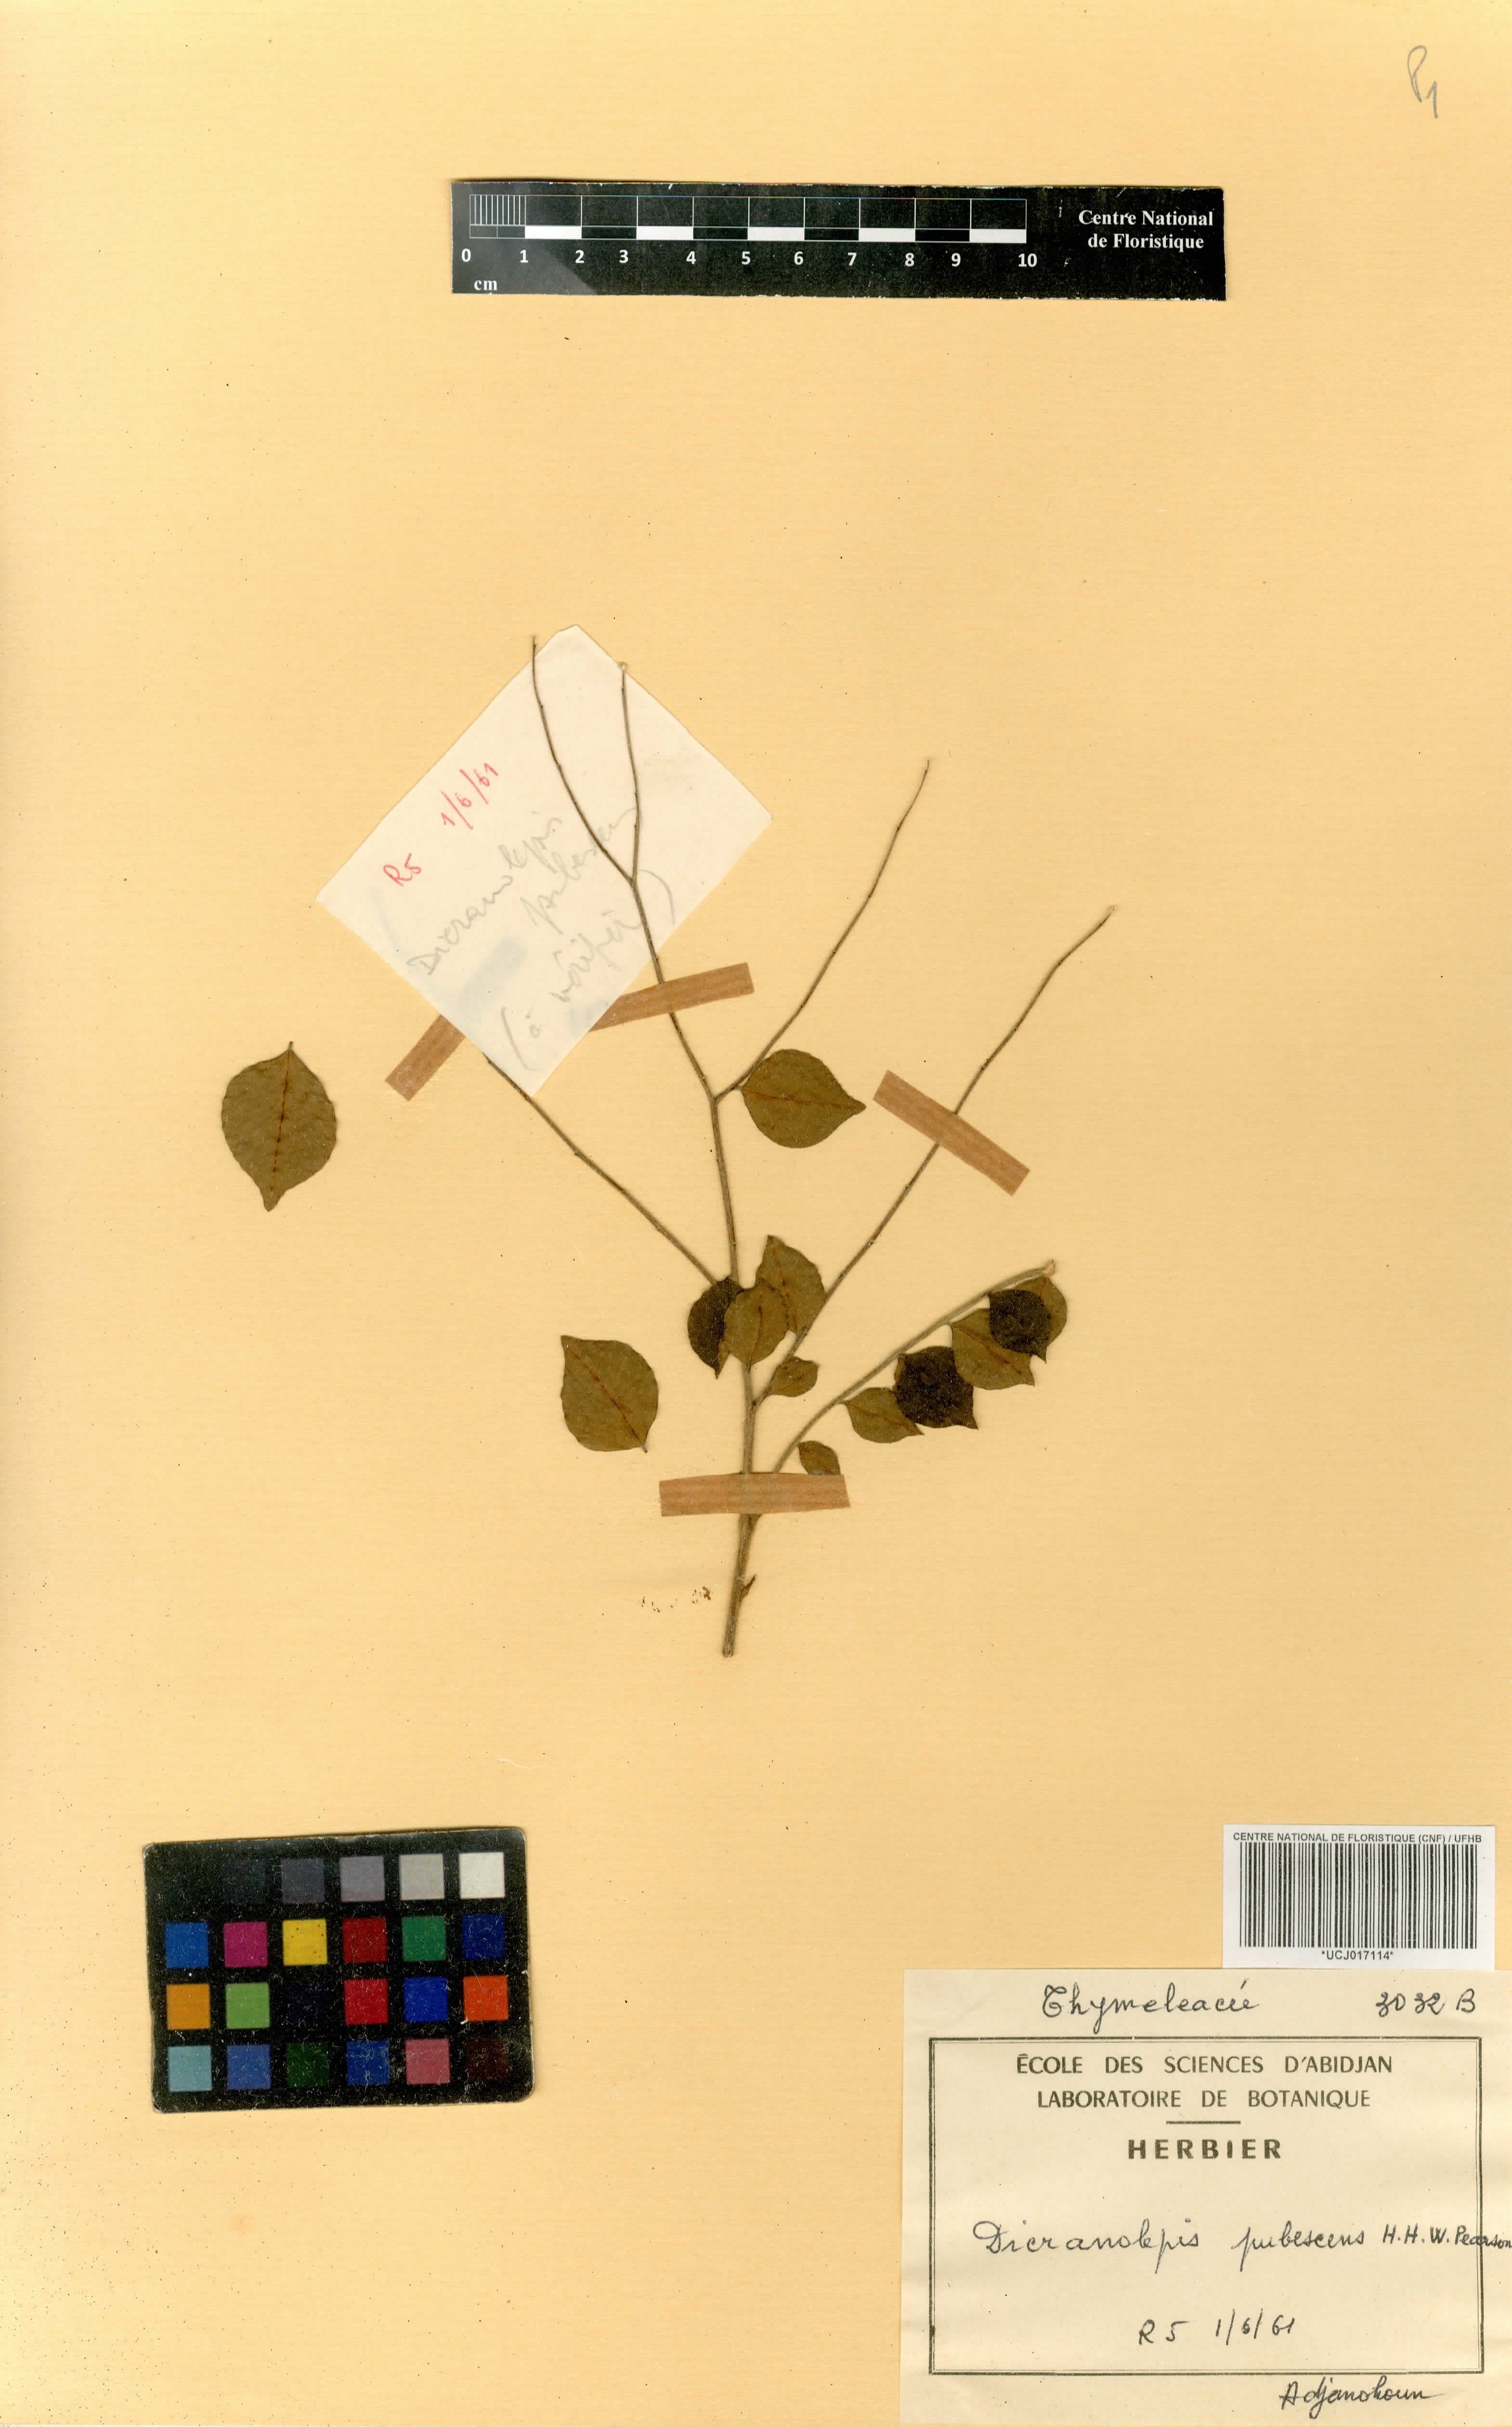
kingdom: Plantae
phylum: Tracheophyta
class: Magnoliopsida
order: Malvales
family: Thymelaeaceae
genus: Dicranolepis
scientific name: Dicranolepis pubescens
